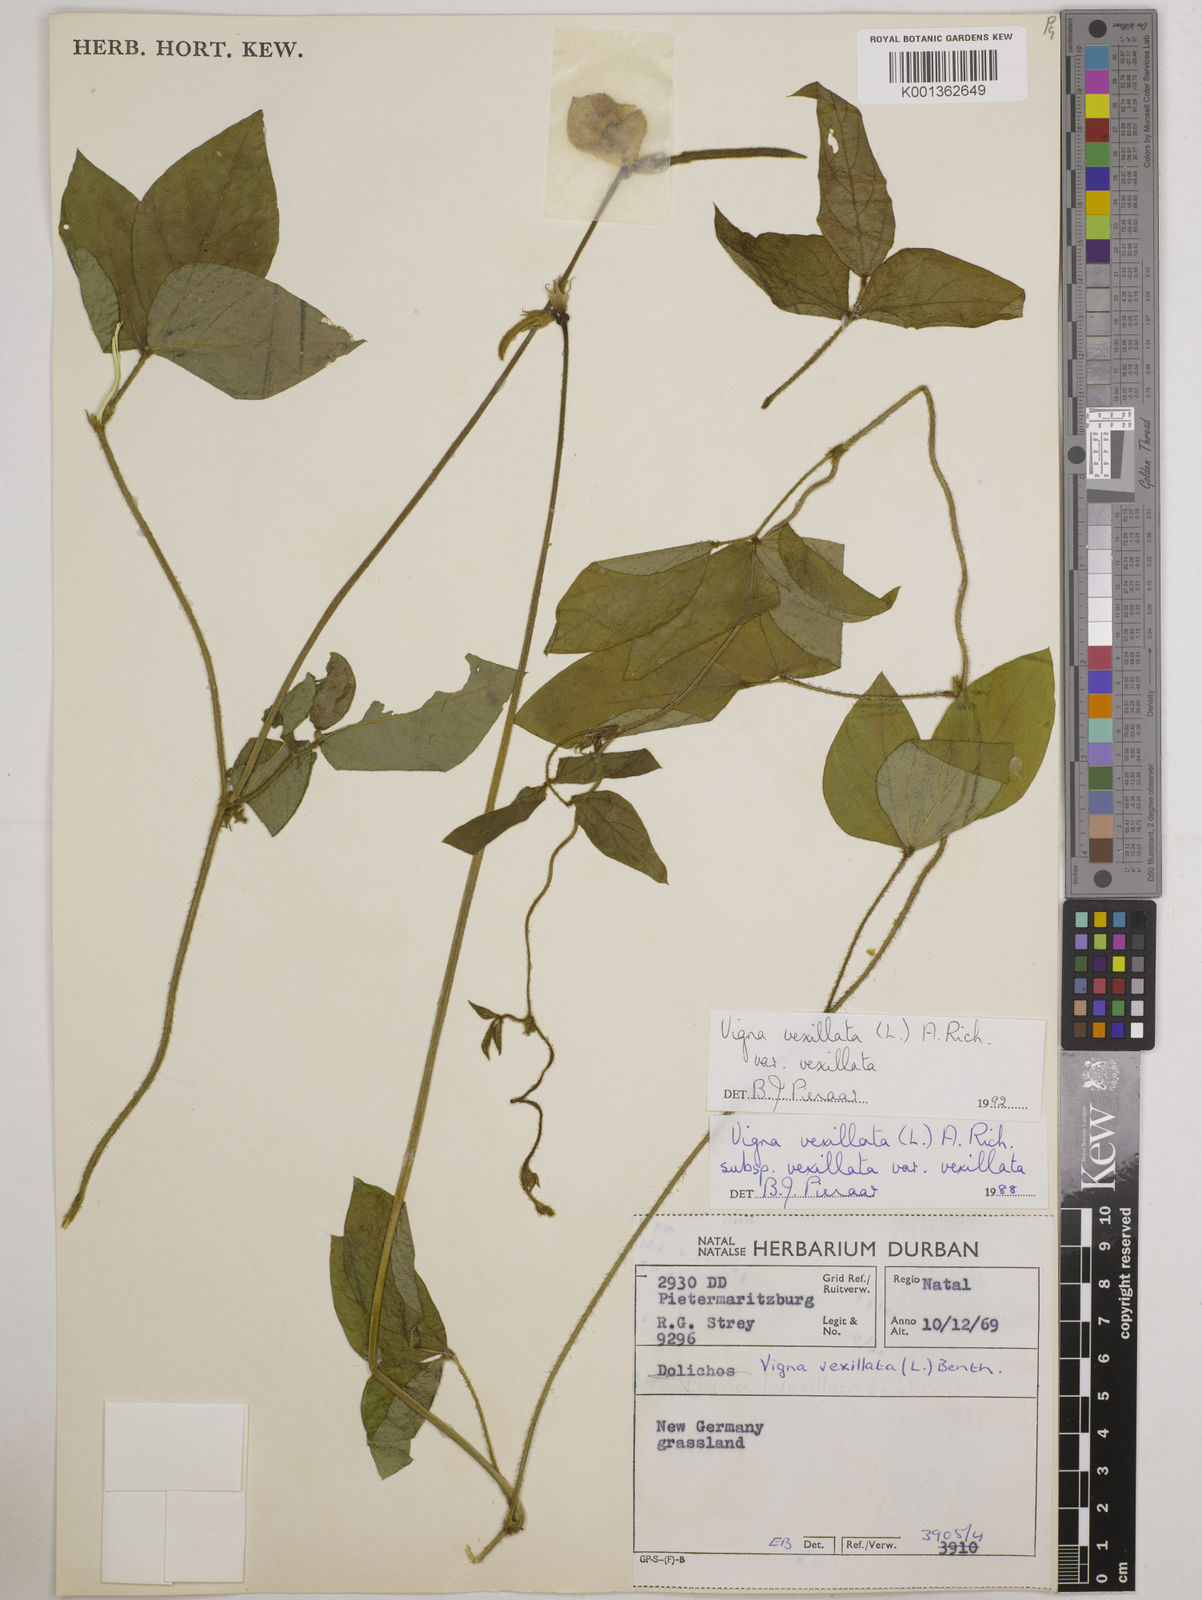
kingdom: Plantae
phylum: Tracheophyta
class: Magnoliopsida
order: Fabales
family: Fabaceae
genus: Vigna
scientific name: Vigna vexillata
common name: Zombi pea
